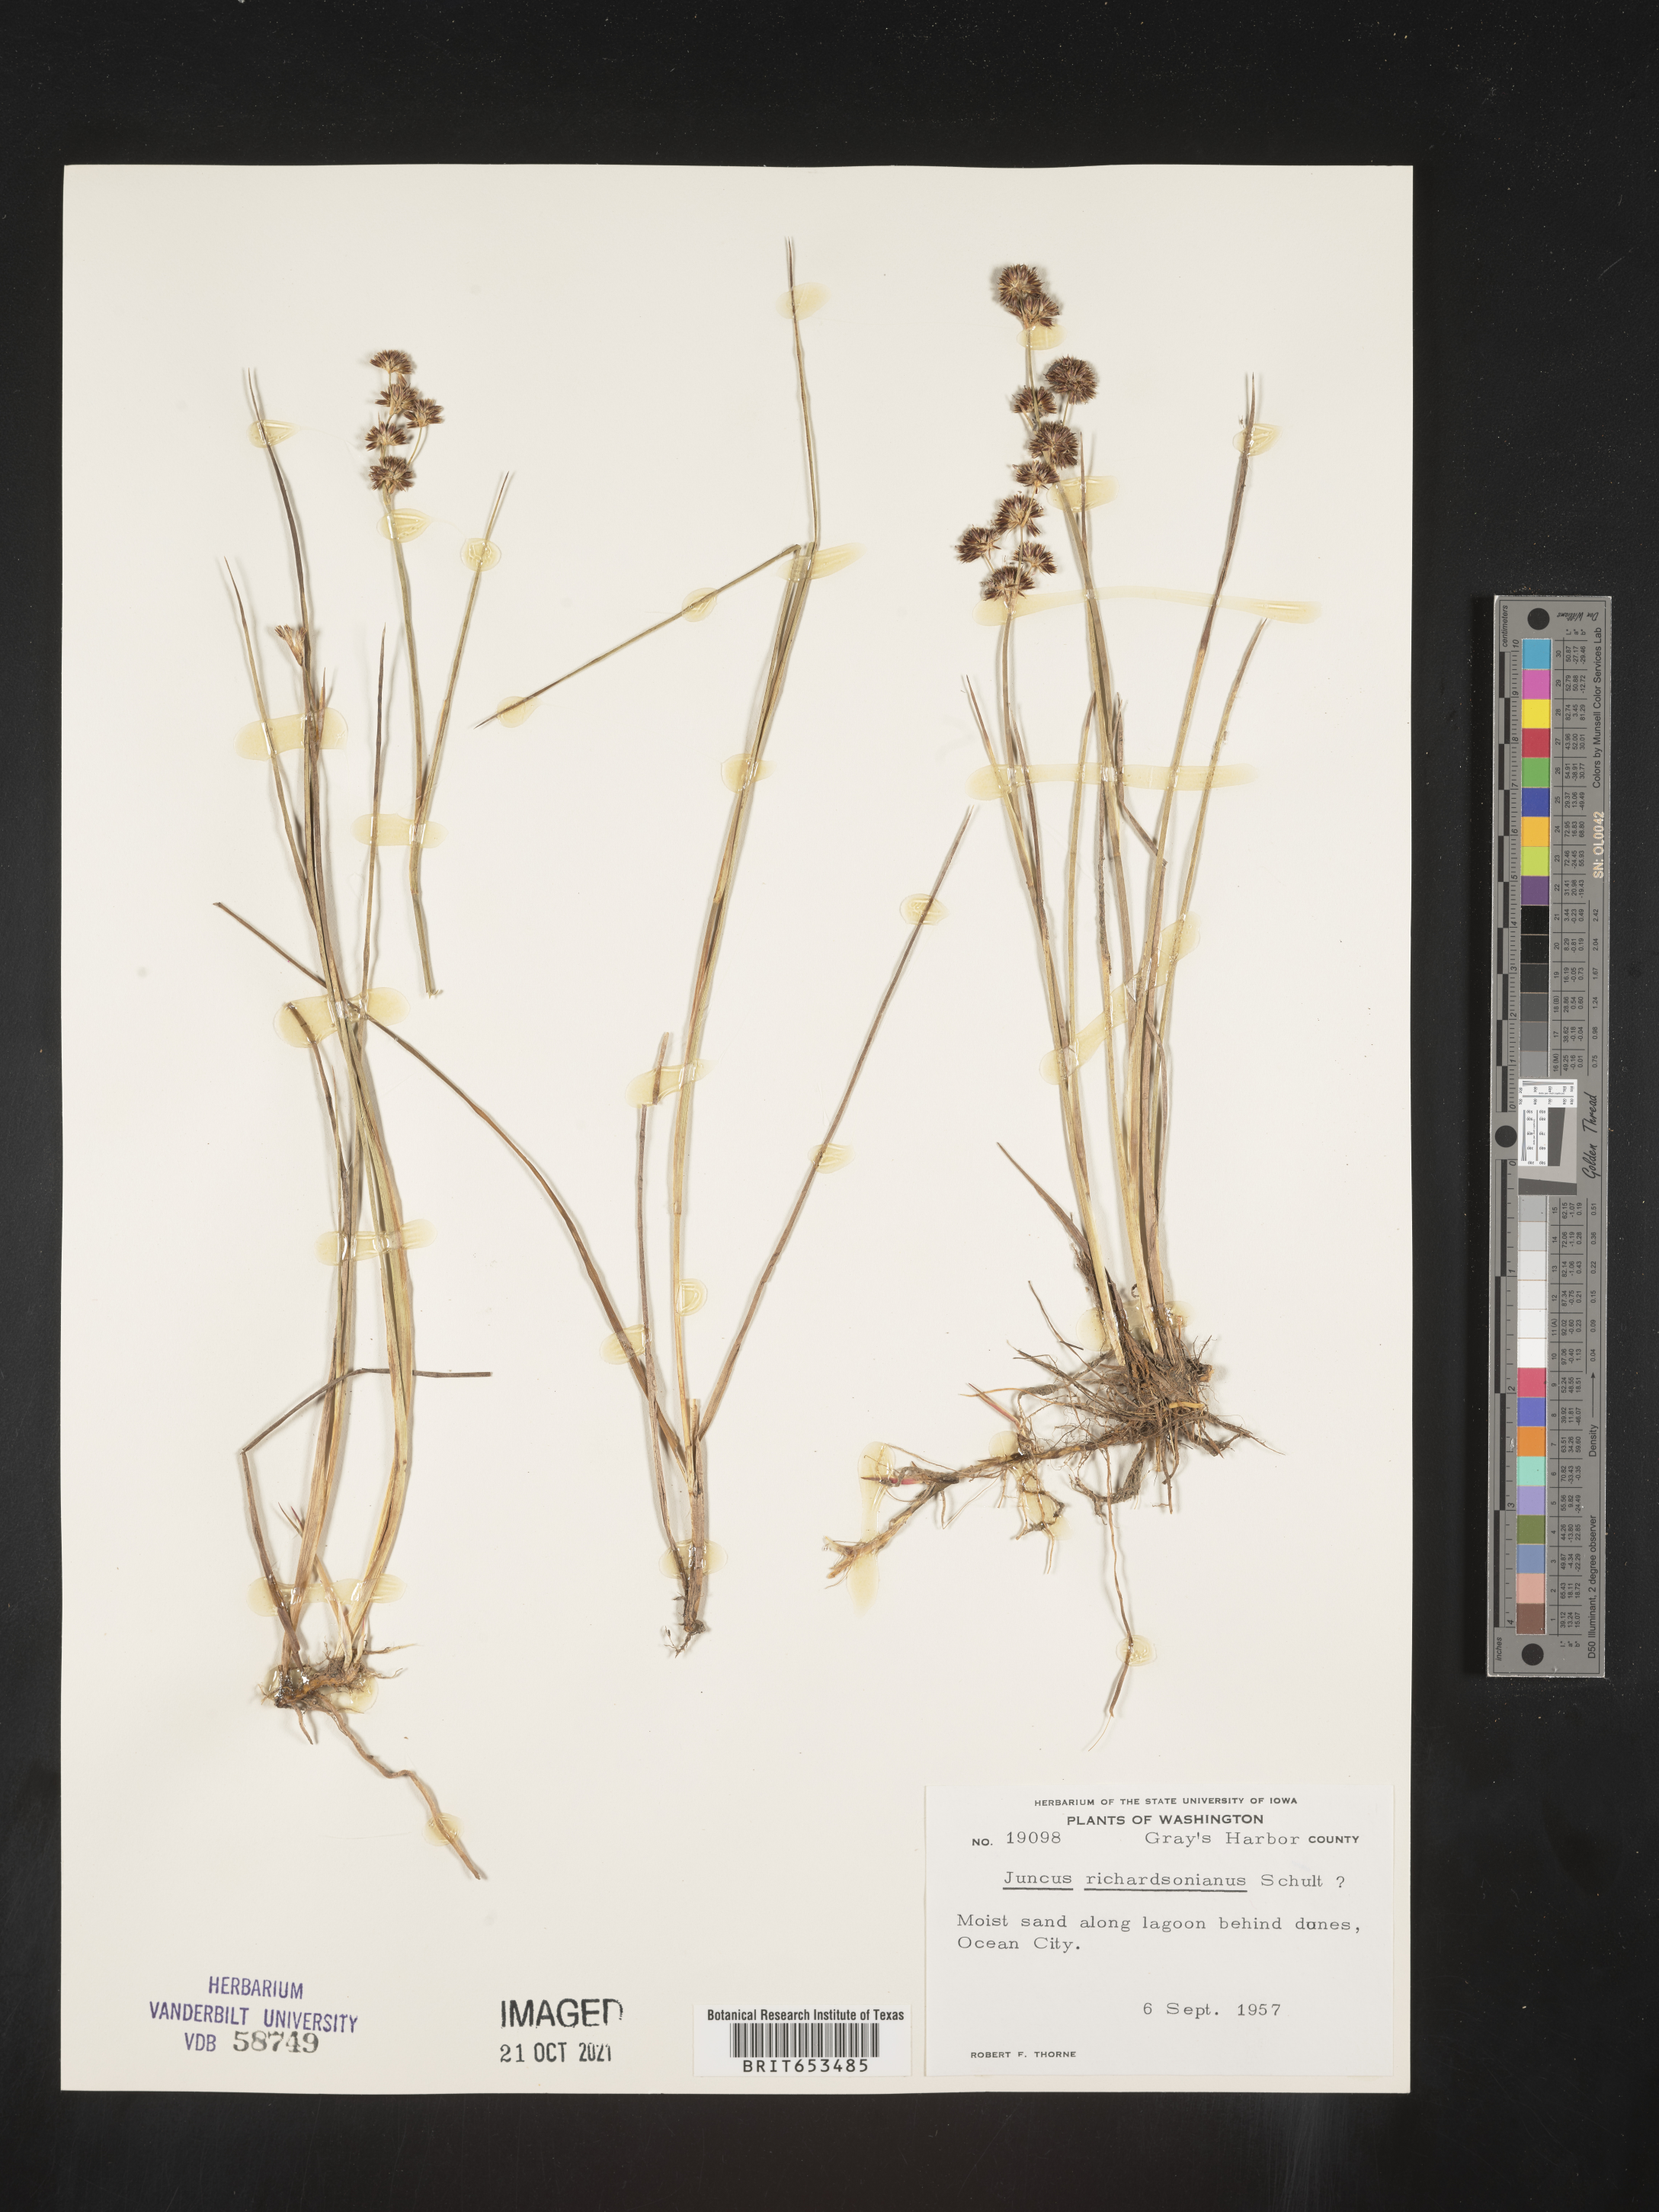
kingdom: Plantae
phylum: Tracheophyta
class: Liliopsida
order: Poales
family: Juncaceae
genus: Juncus
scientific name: Juncus alpinoarticulatus
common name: Alpine rush
